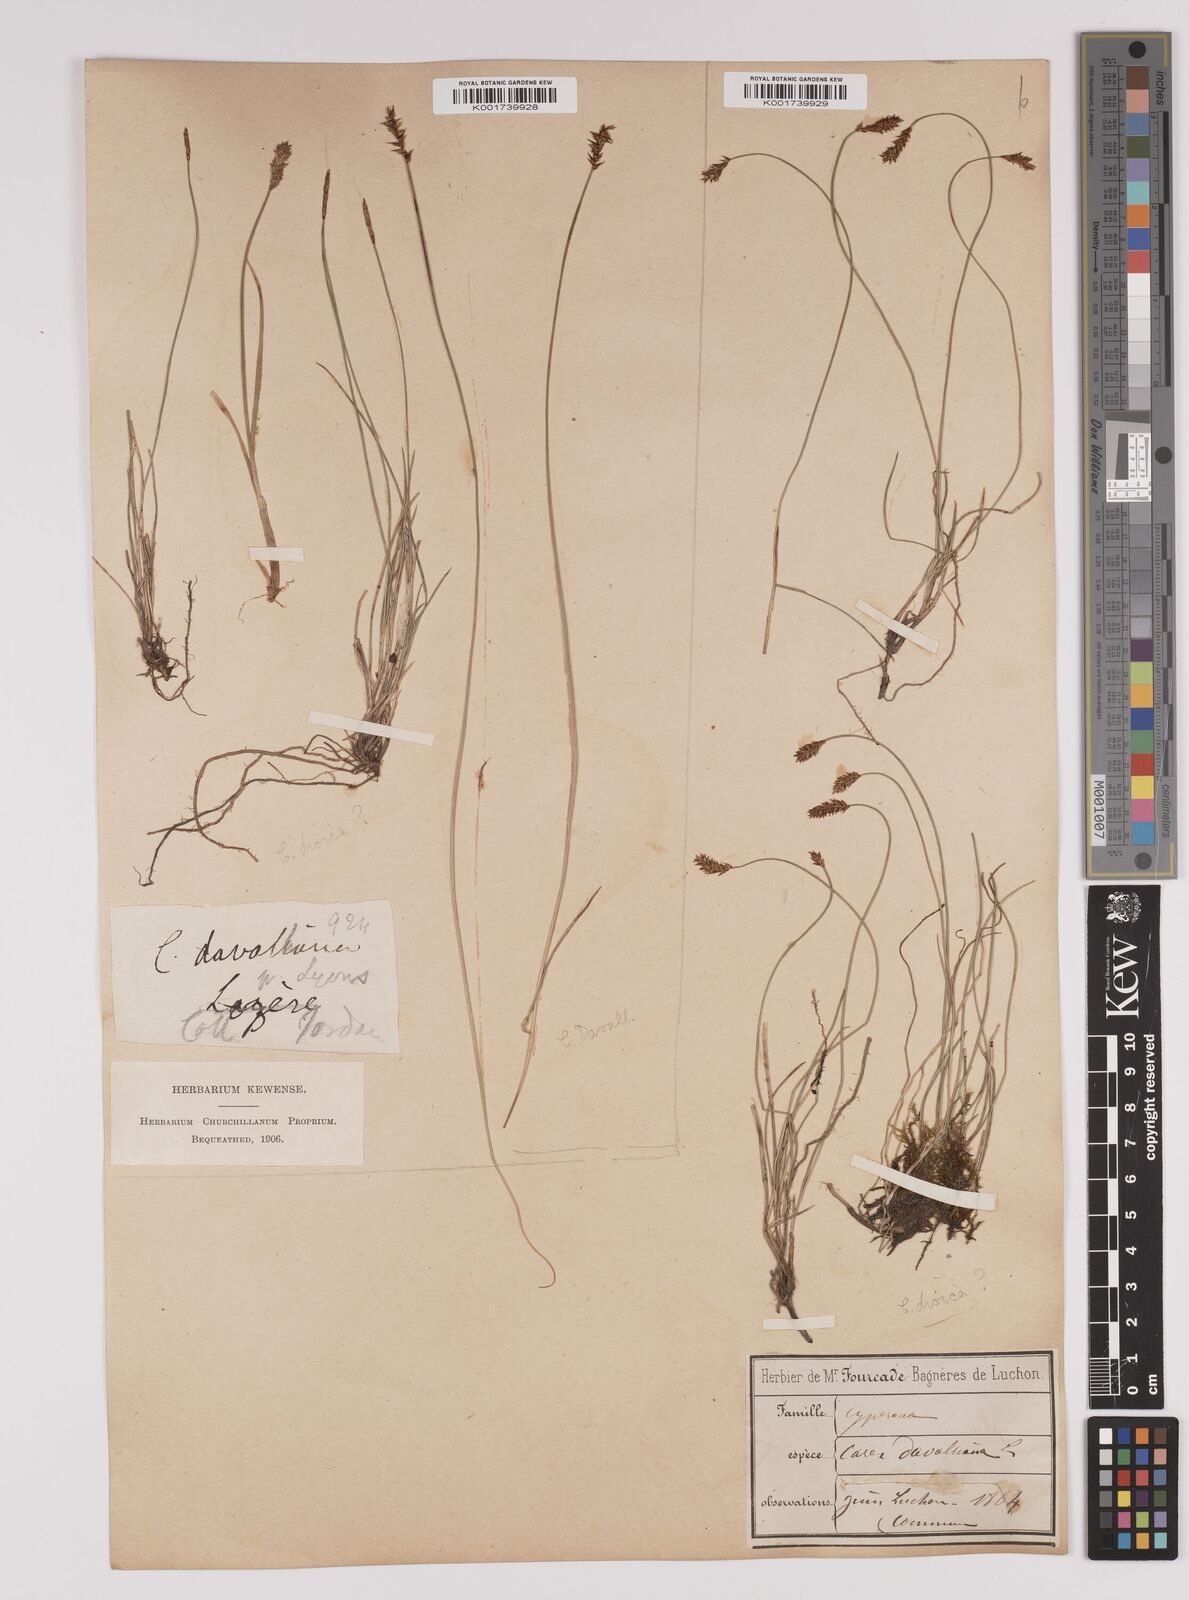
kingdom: Plantae
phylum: Tracheophyta
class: Liliopsida
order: Poales
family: Cyperaceae
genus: Carex
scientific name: Carex davalliana
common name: Davall's sedge
